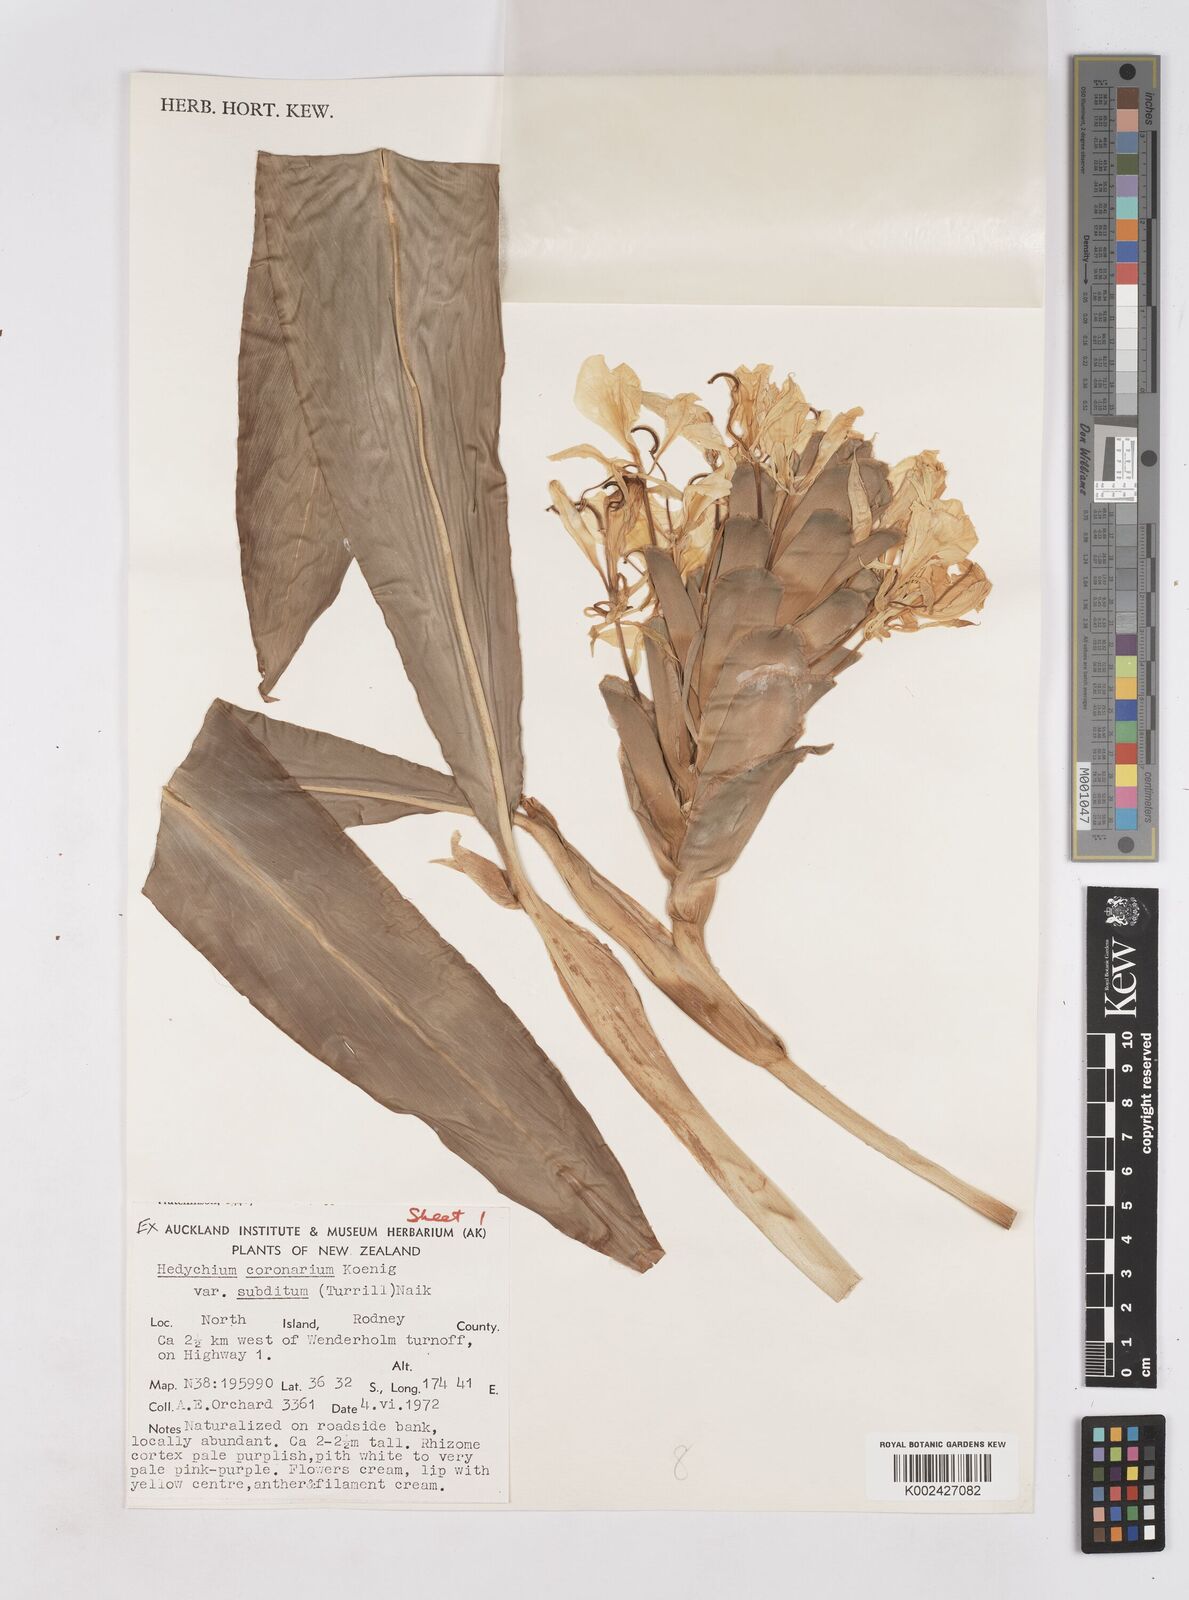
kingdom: Plantae
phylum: Tracheophyta
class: Liliopsida
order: Zingiberales
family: Zingiberaceae
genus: Hedychium
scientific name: Hedychium coronarium
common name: White garland-lily
